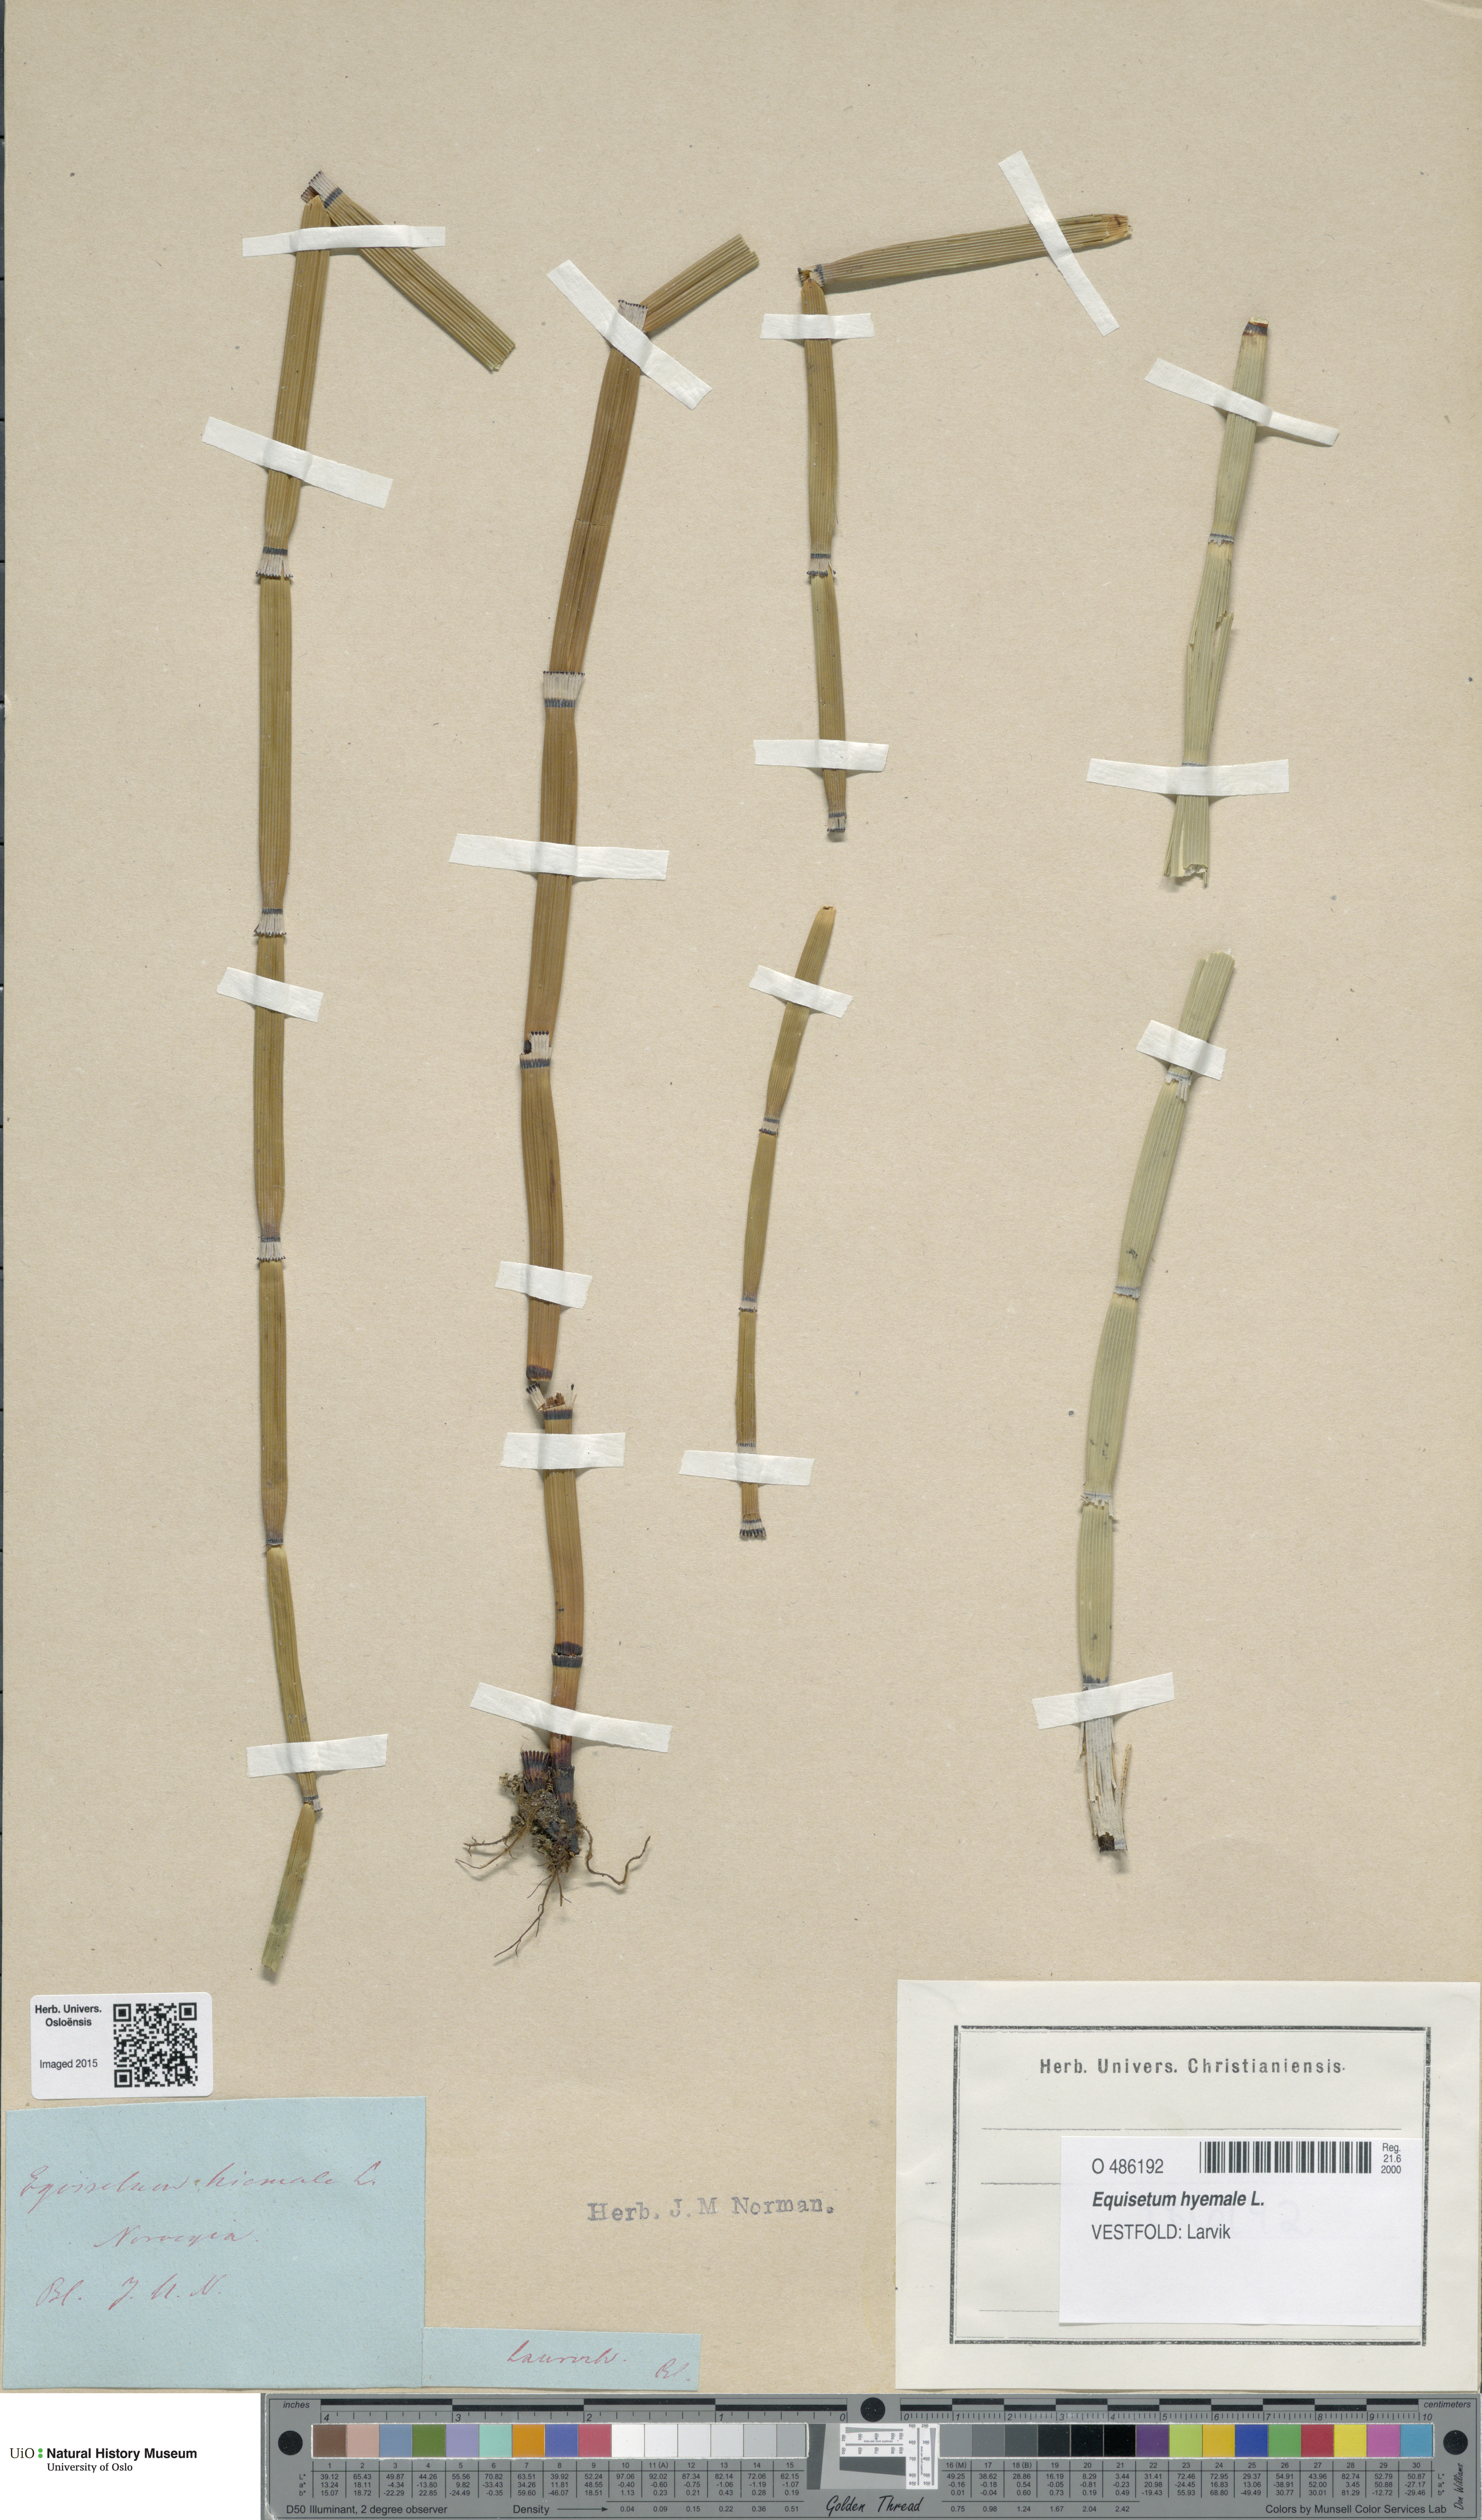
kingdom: Plantae
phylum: Tracheophyta
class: Polypodiopsida
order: Equisetales
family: Equisetaceae
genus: Equisetum
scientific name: Equisetum hyemale
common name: Rough horsetail
